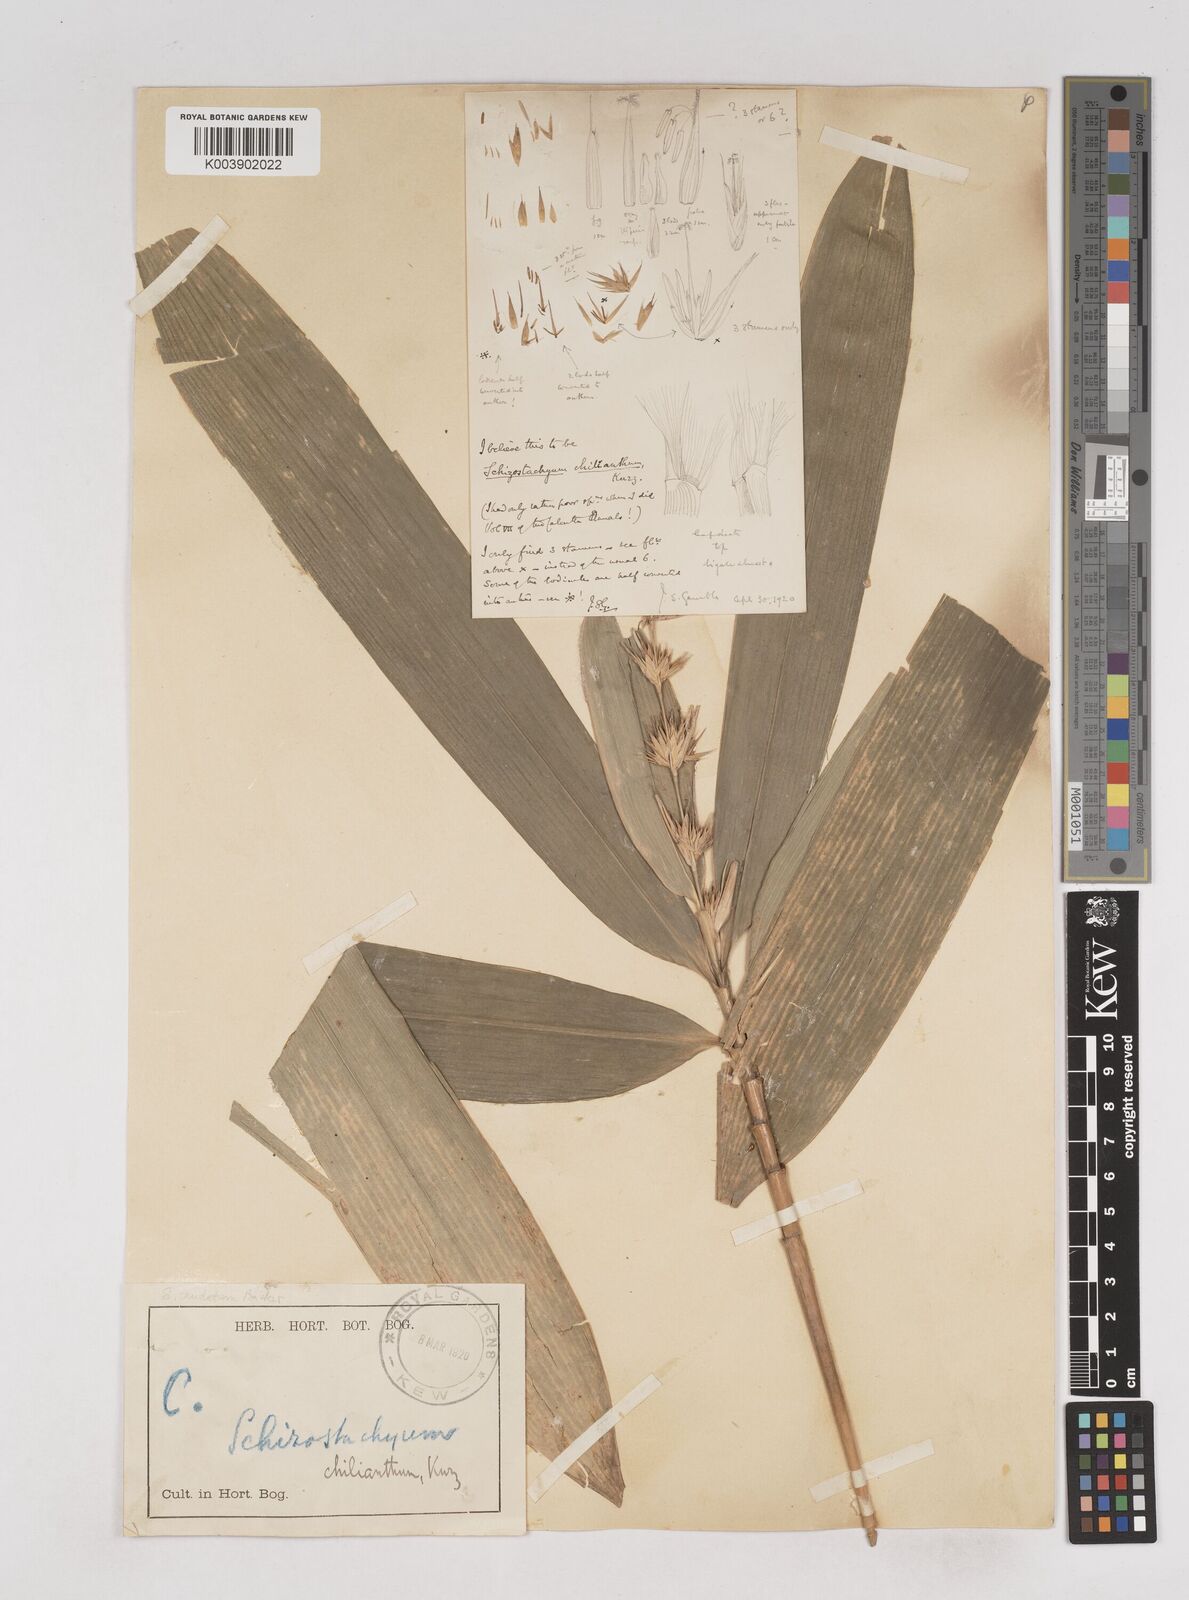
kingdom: Plantae
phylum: Tracheophyta
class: Liliopsida
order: Poales
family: Poaceae
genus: Schizostachyum
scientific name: Schizostachyum caudatum
